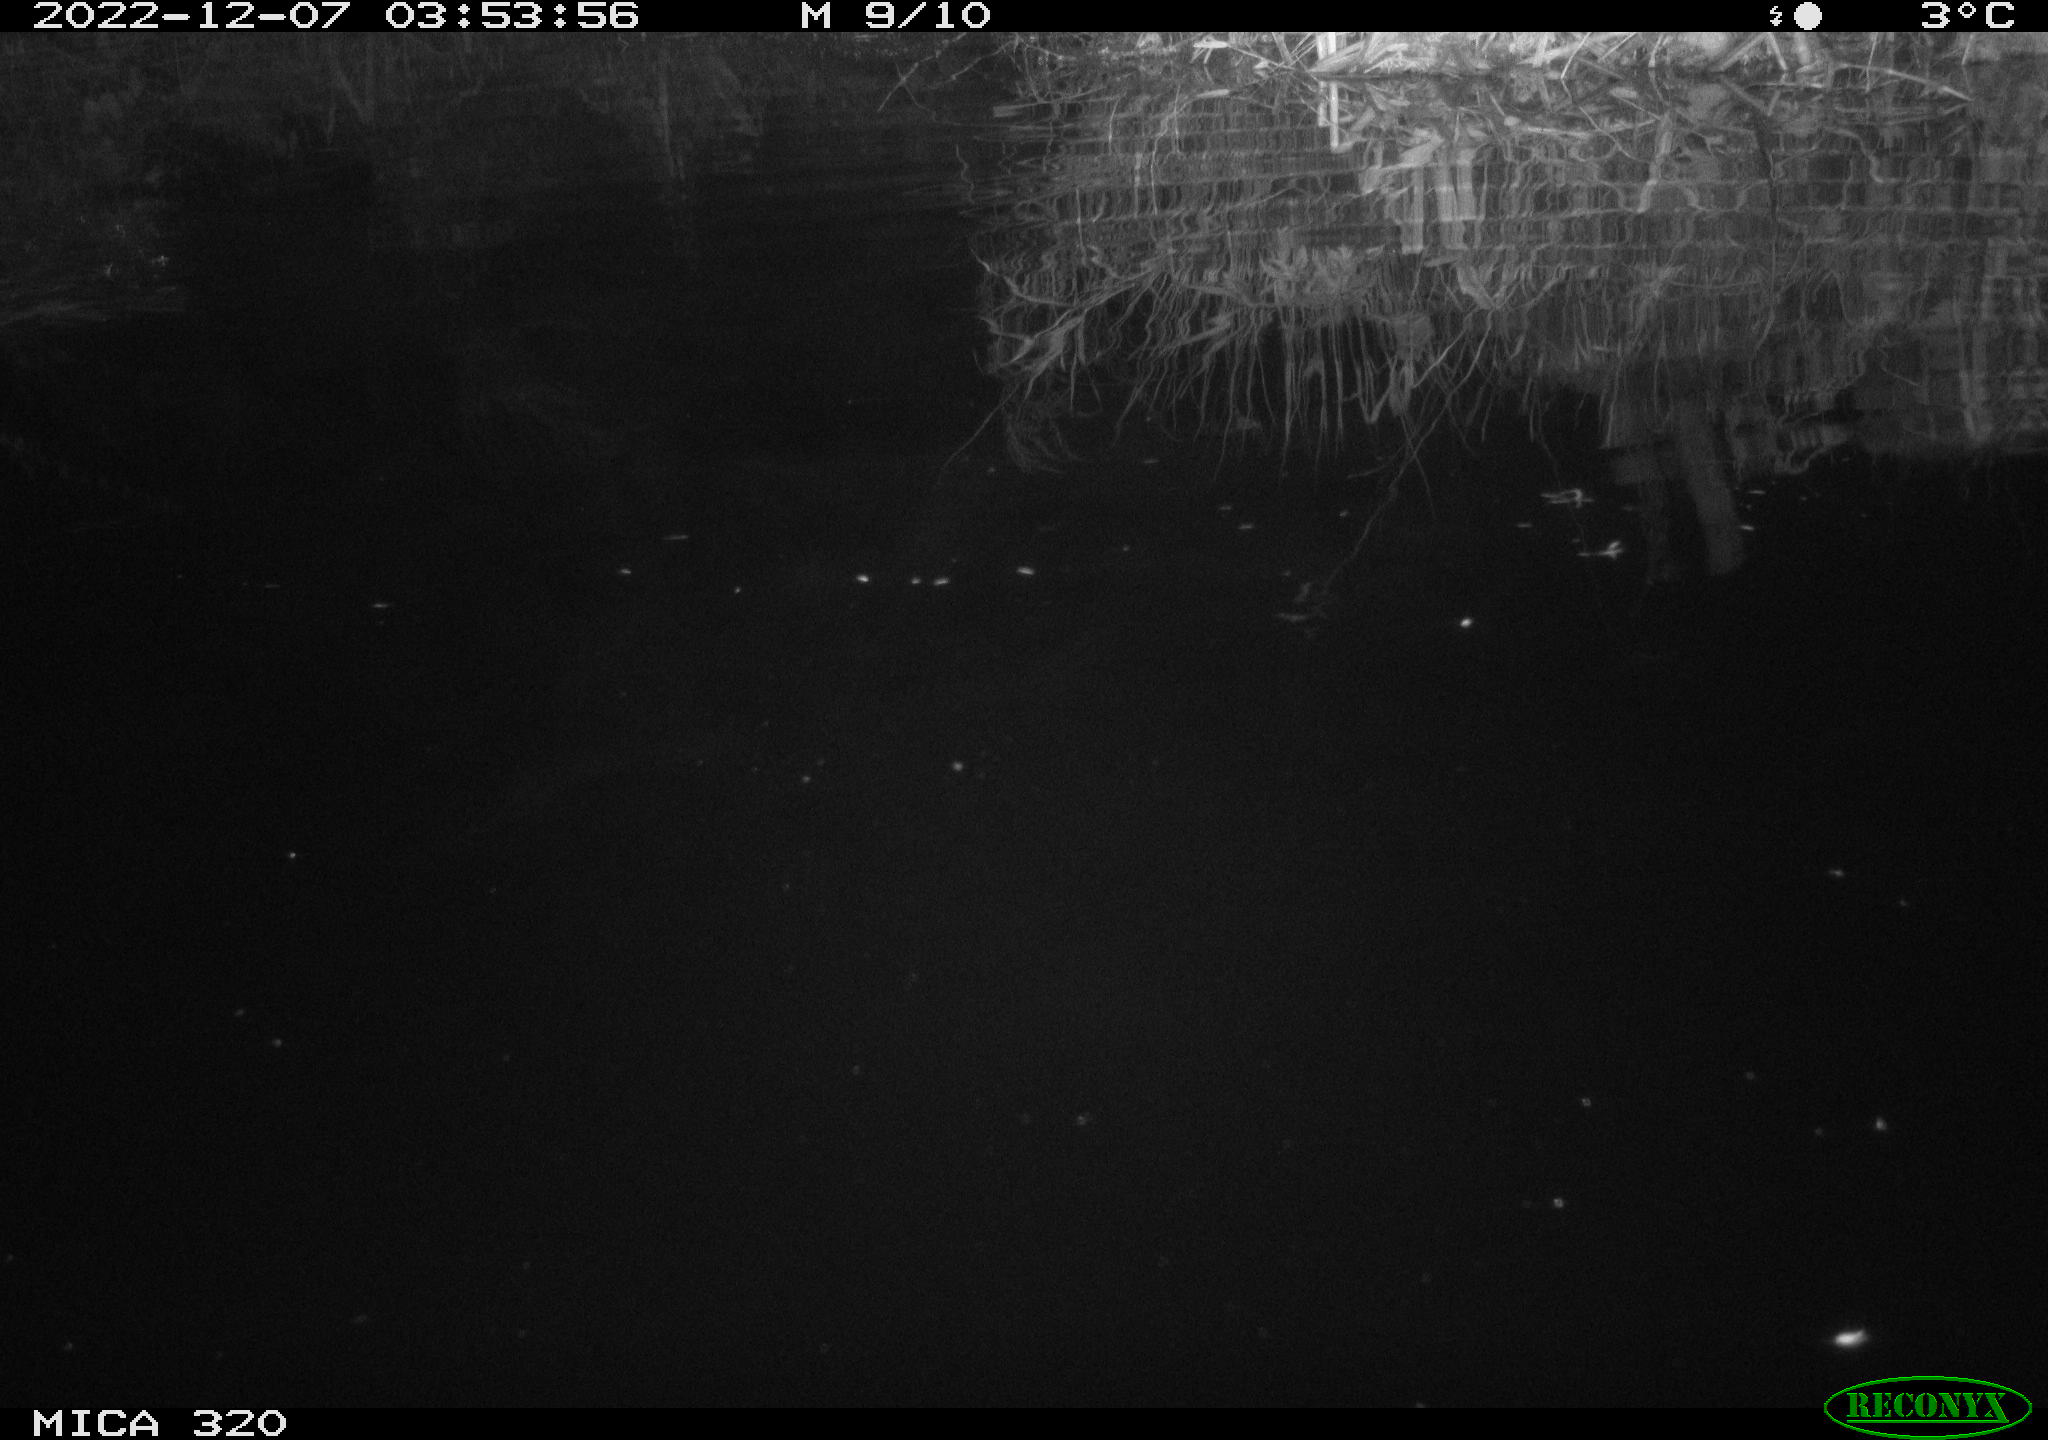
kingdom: Animalia
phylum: Chordata
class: Aves
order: Anseriformes
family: Anatidae
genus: Anas
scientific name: Anas
